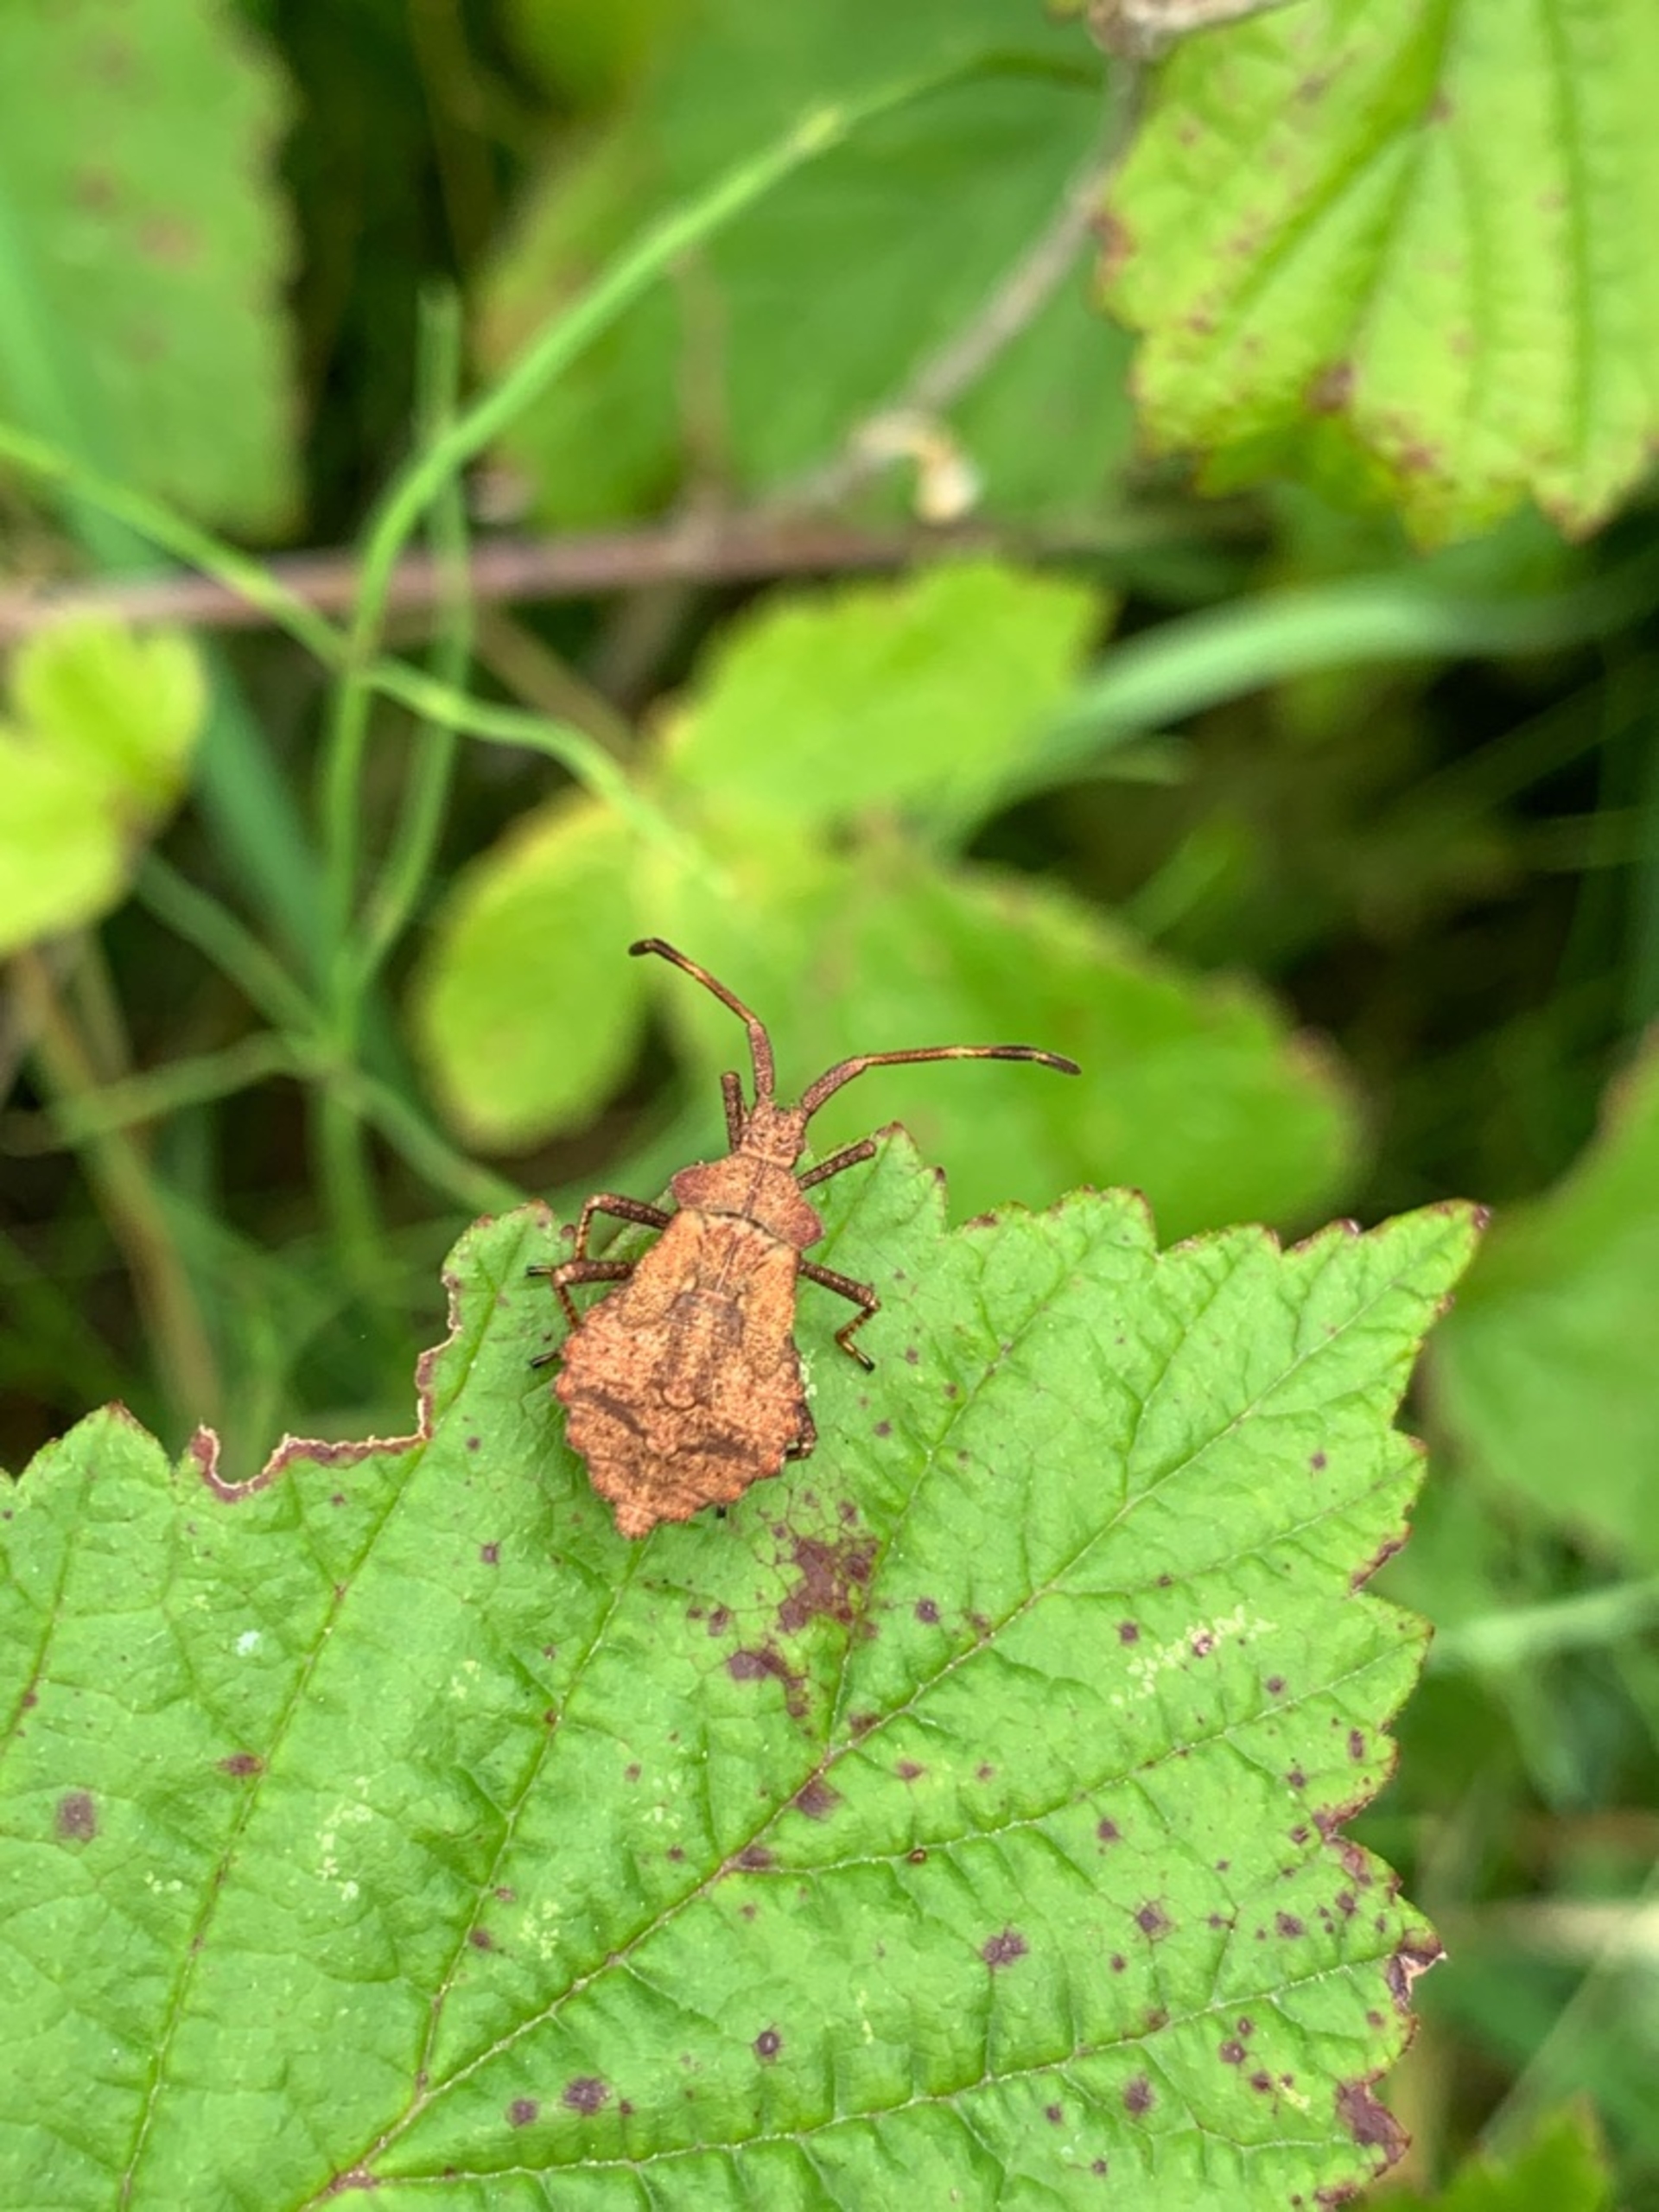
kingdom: Animalia
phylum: Arthropoda
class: Insecta
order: Hemiptera
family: Coreidae
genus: Coreus
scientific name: Coreus marginatus
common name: Skræppetæge
